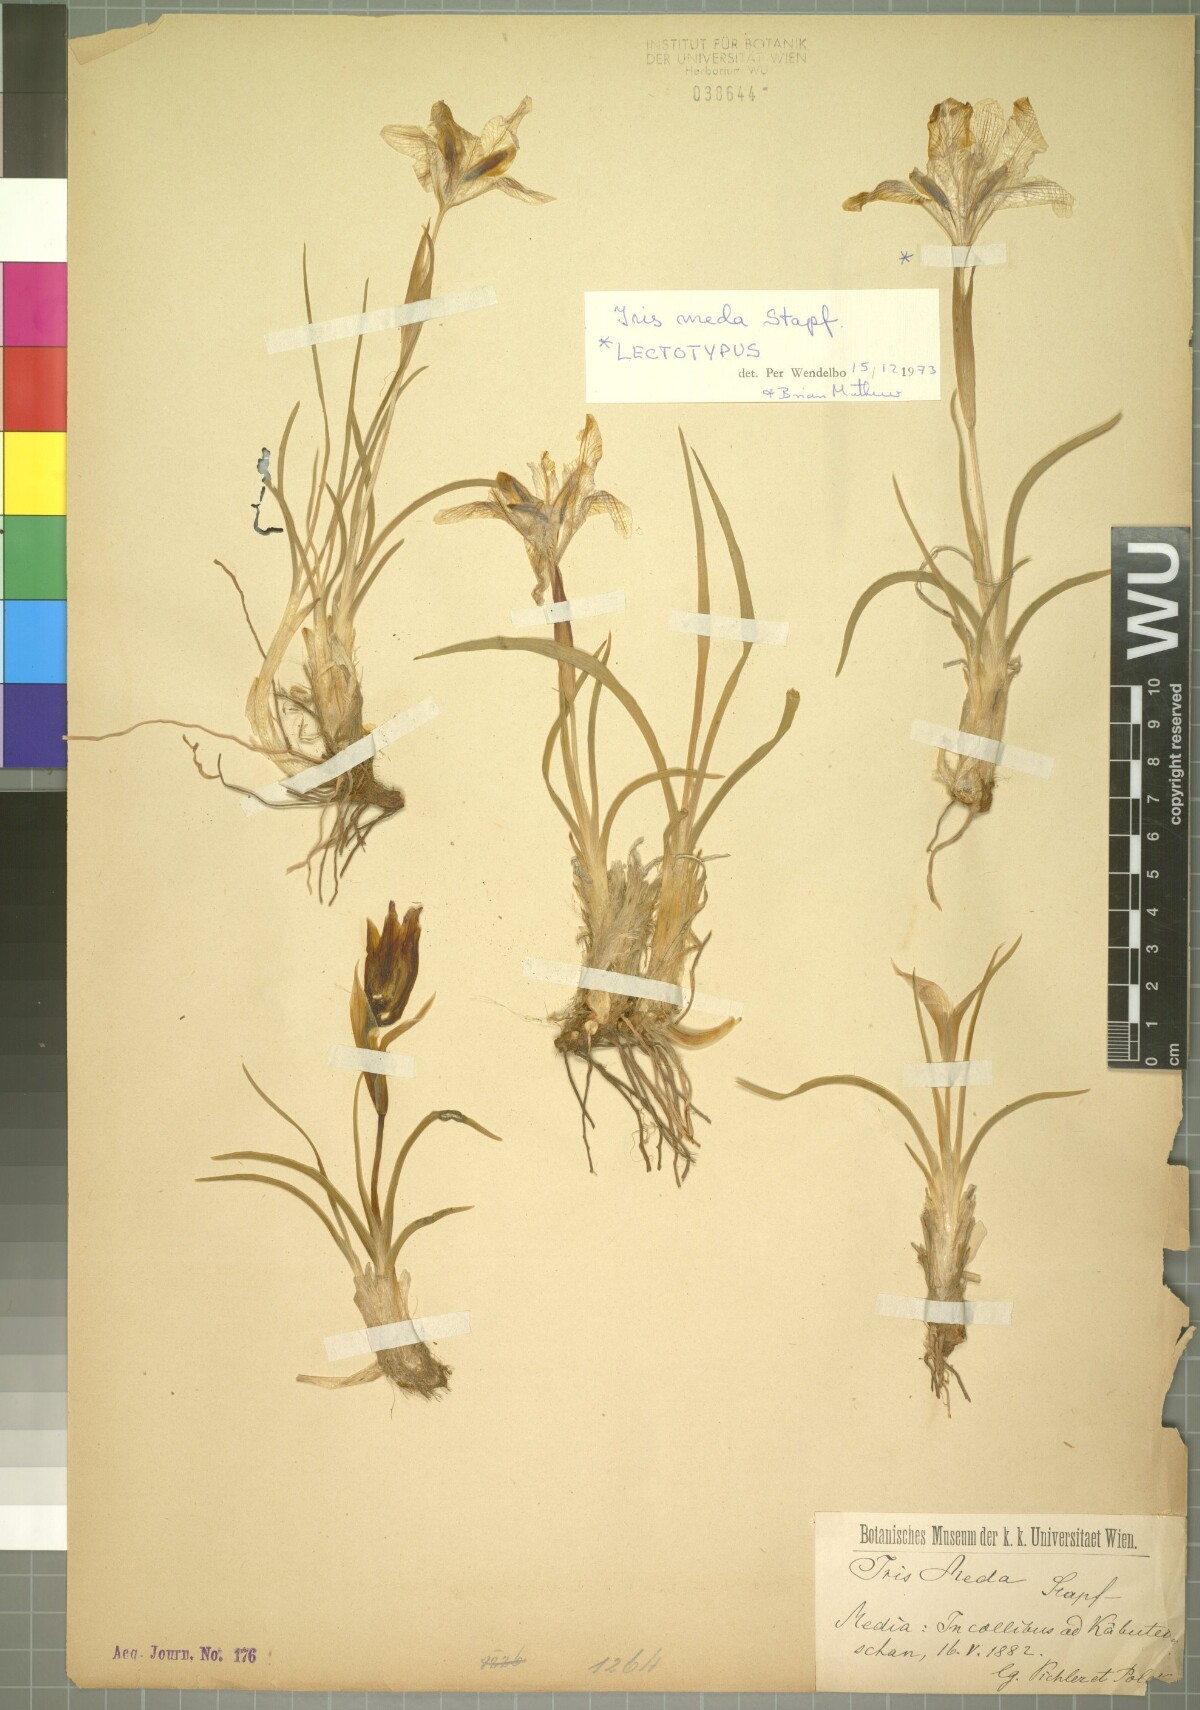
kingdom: Plantae
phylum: Tracheophyta
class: Liliopsida
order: Asparagales
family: Iridaceae
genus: Iris
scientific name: Iris meda
